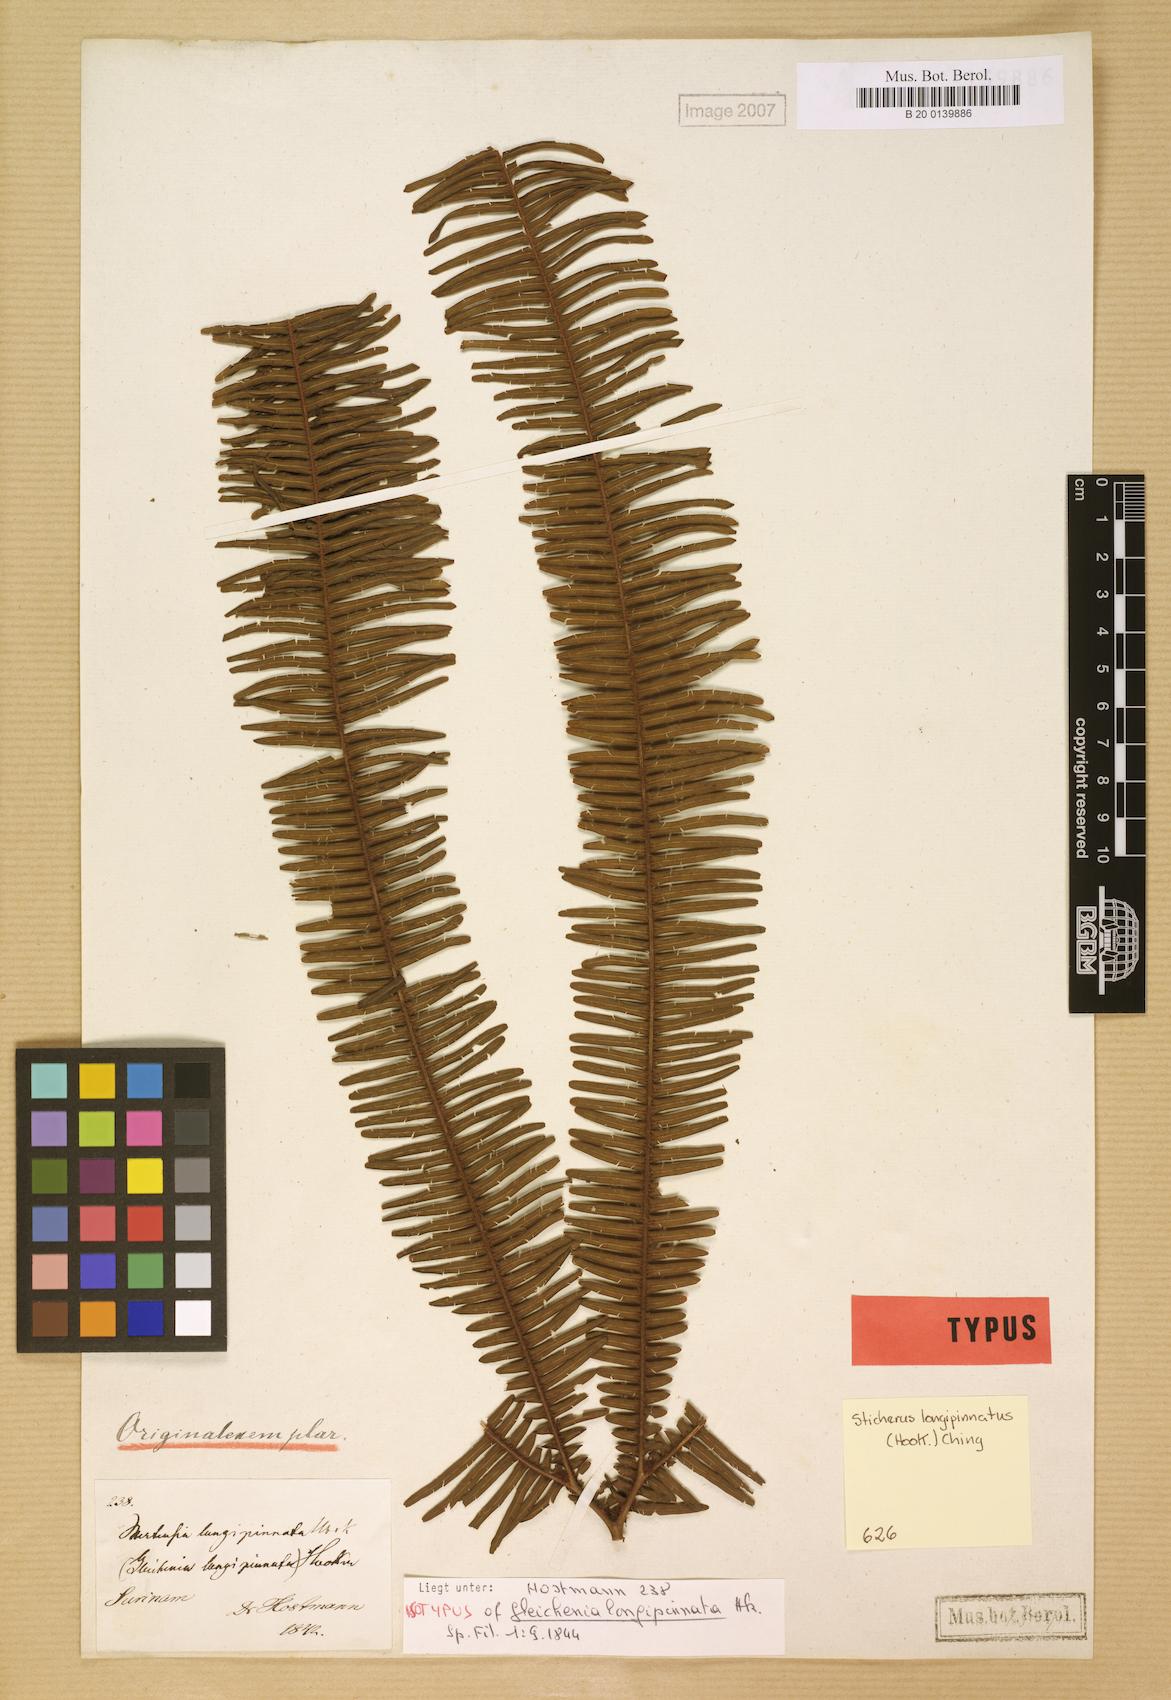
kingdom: Plantae
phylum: Tracheophyta
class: Polypodiopsida
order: Gleicheniales
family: Gleicheniaceae
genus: Sticherus
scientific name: Sticherus longipinnatus
